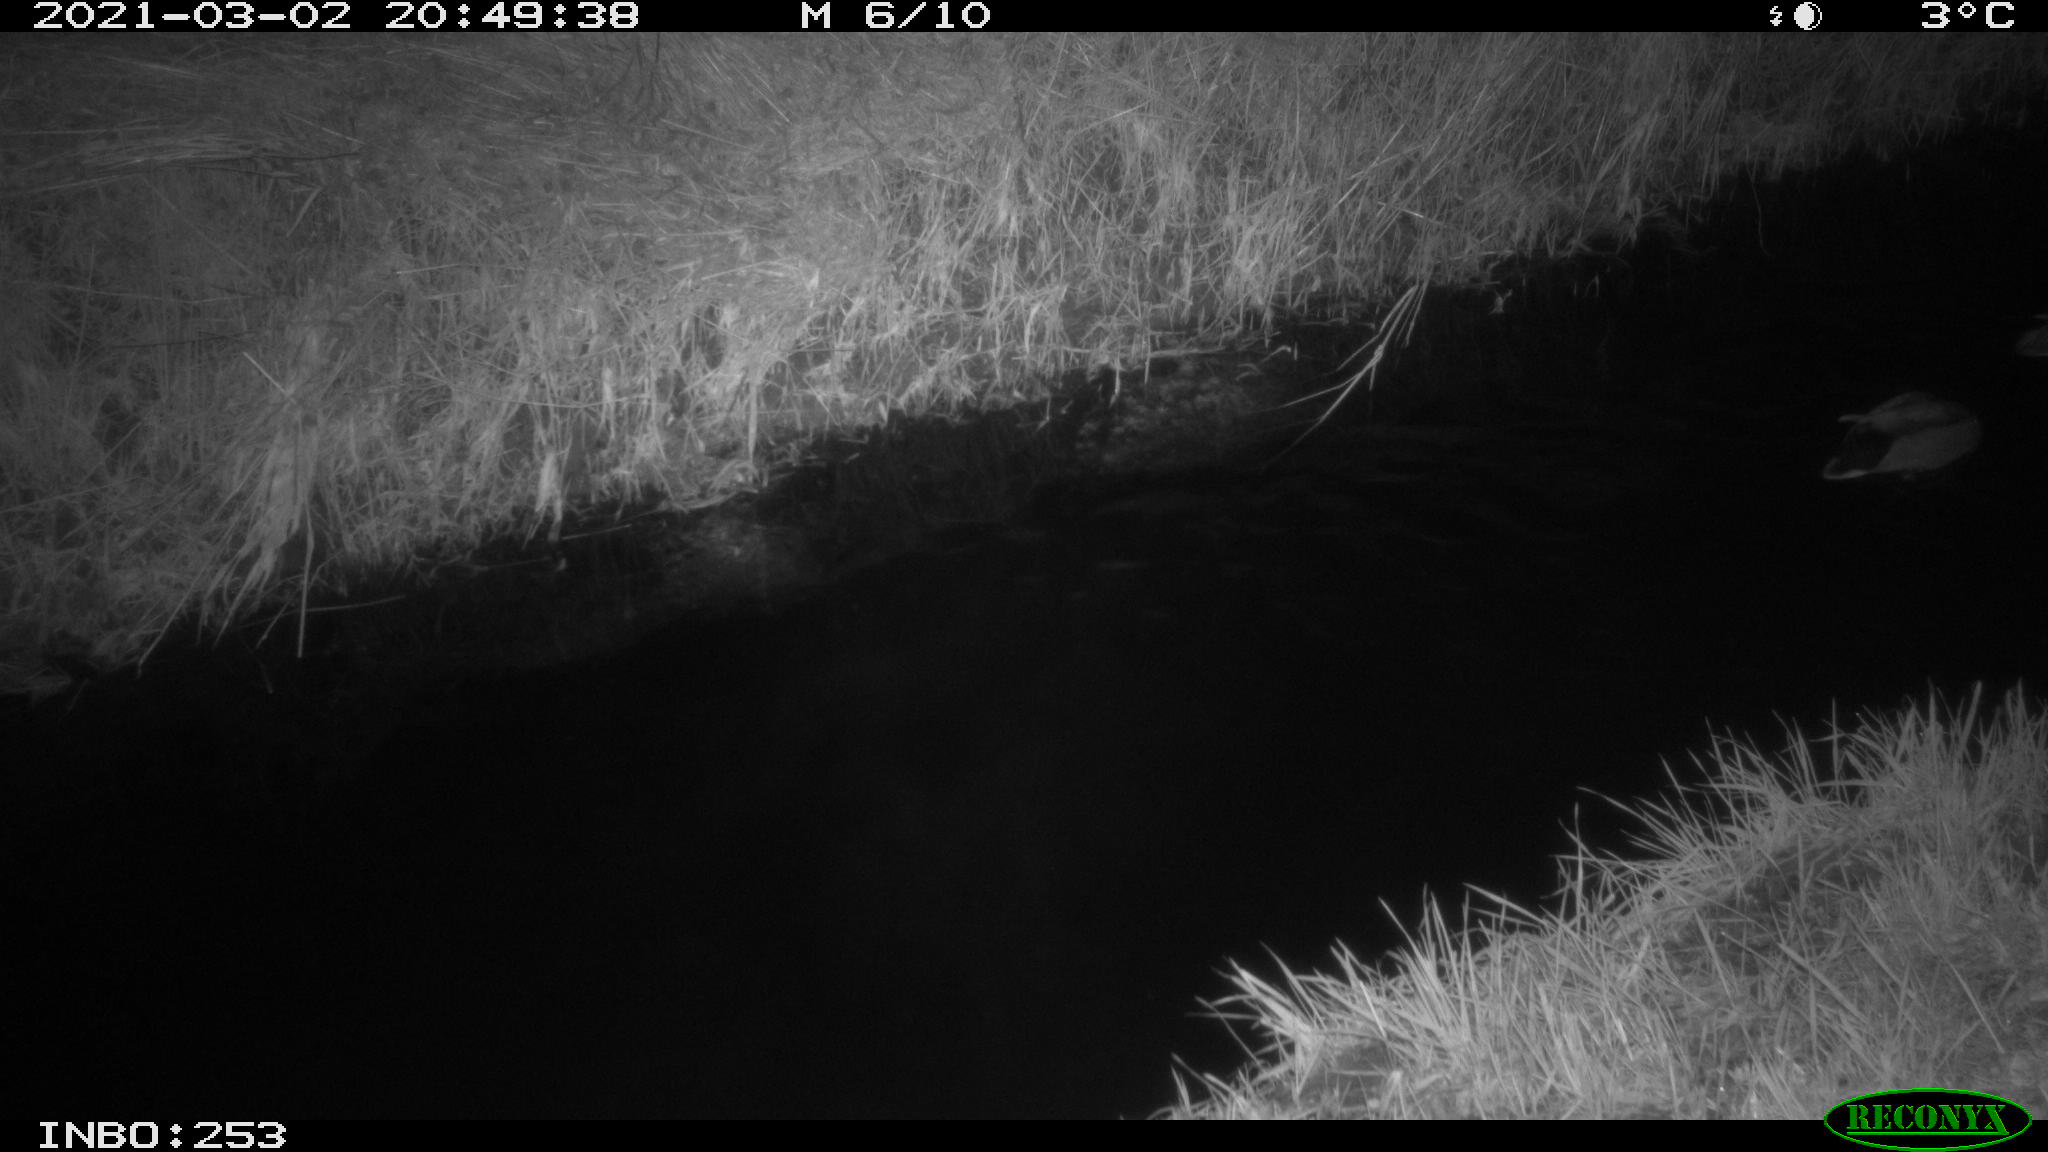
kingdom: Animalia
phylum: Chordata
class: Aves
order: Anseriformes
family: Anatidae
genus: Anas
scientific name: Anas platyrhynchos
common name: Mallard
